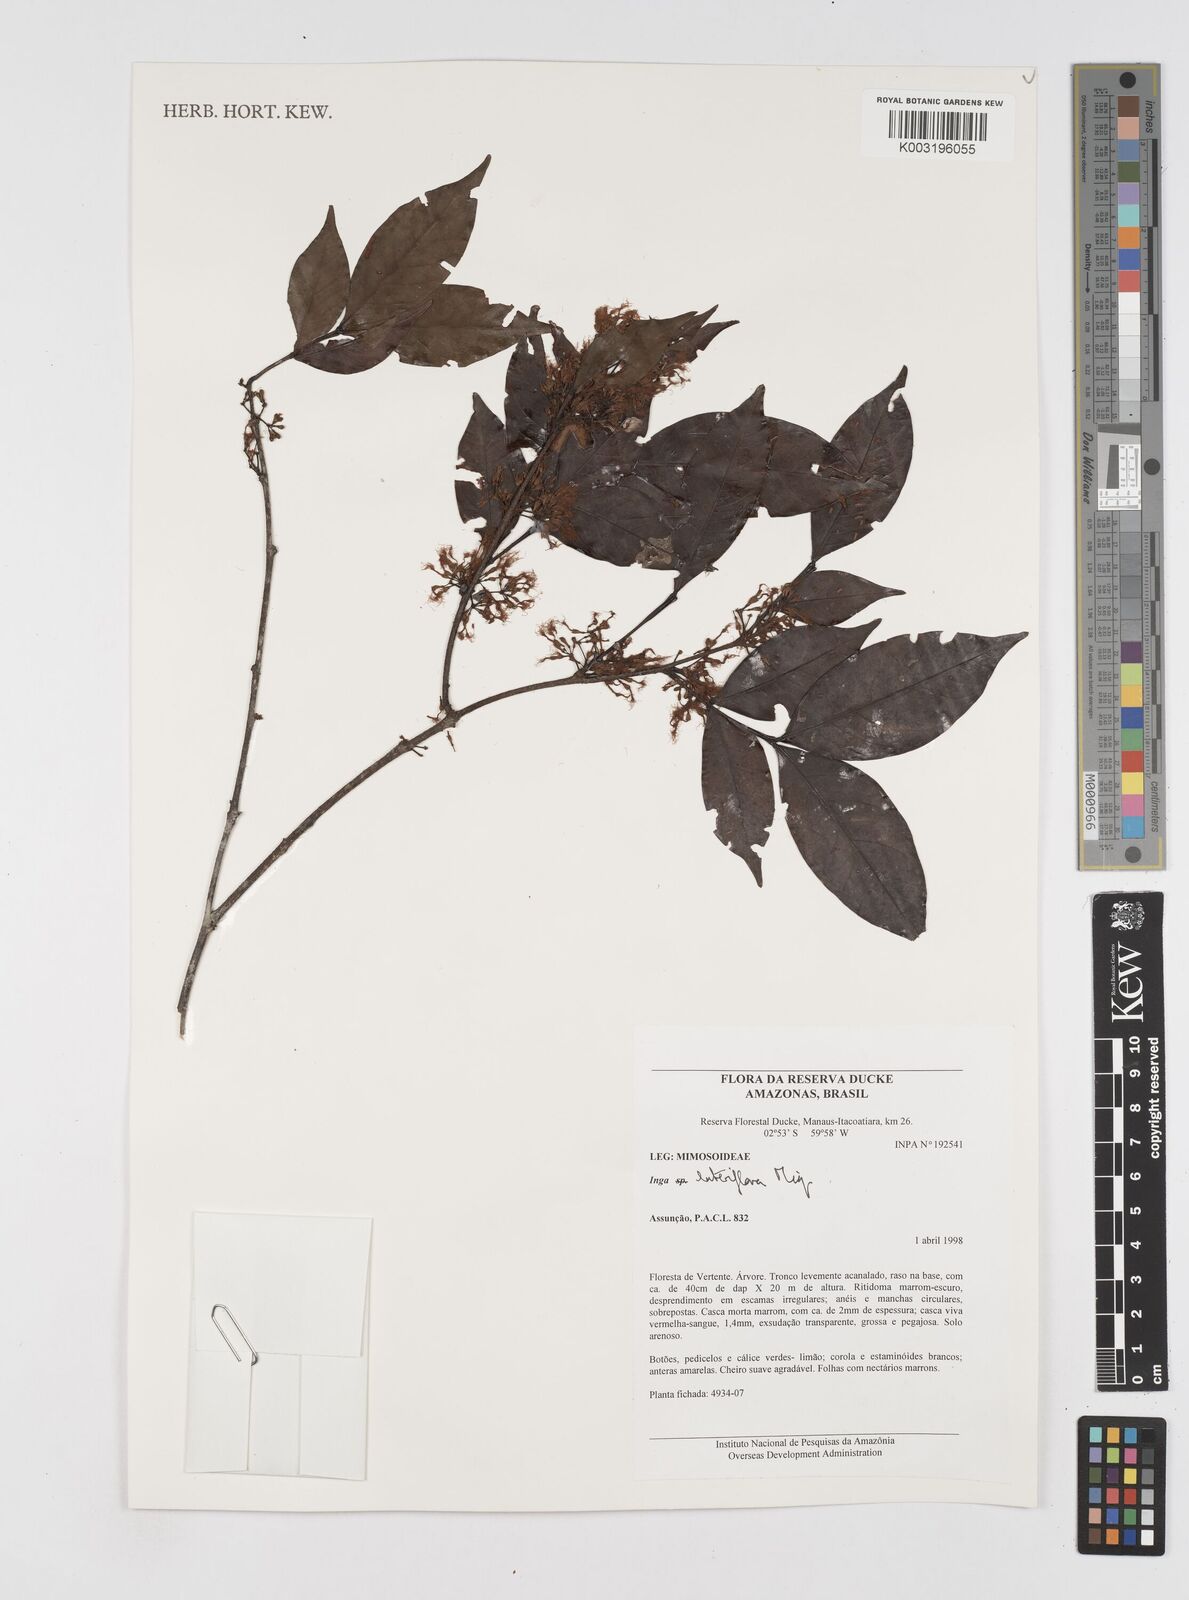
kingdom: Plantae
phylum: Tracheophyta
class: Magnoliopsida
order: Fabales
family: Fabaceae
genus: Inga
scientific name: Inga lateriflora
